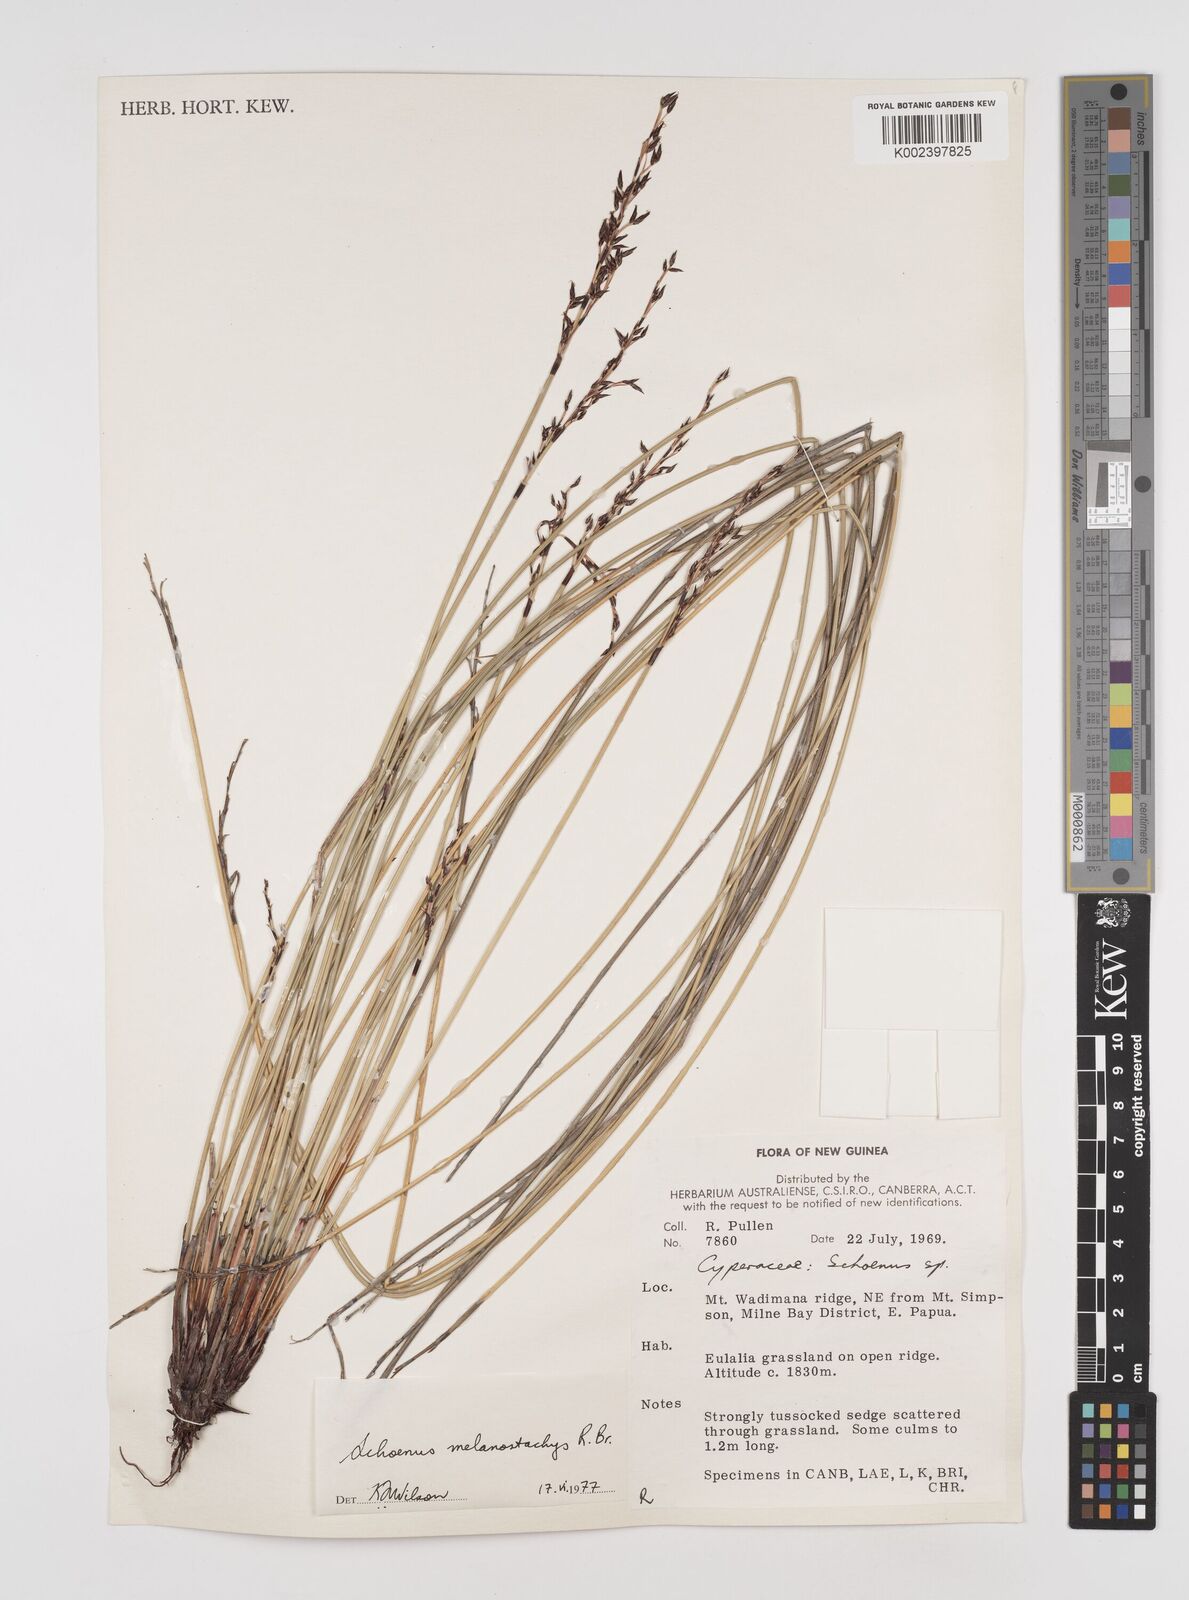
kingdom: Plantae
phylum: Tracheophyta
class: Liliopsida
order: Poales
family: Cyperaceae
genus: Schoenus
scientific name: Schoenus melanostachys
